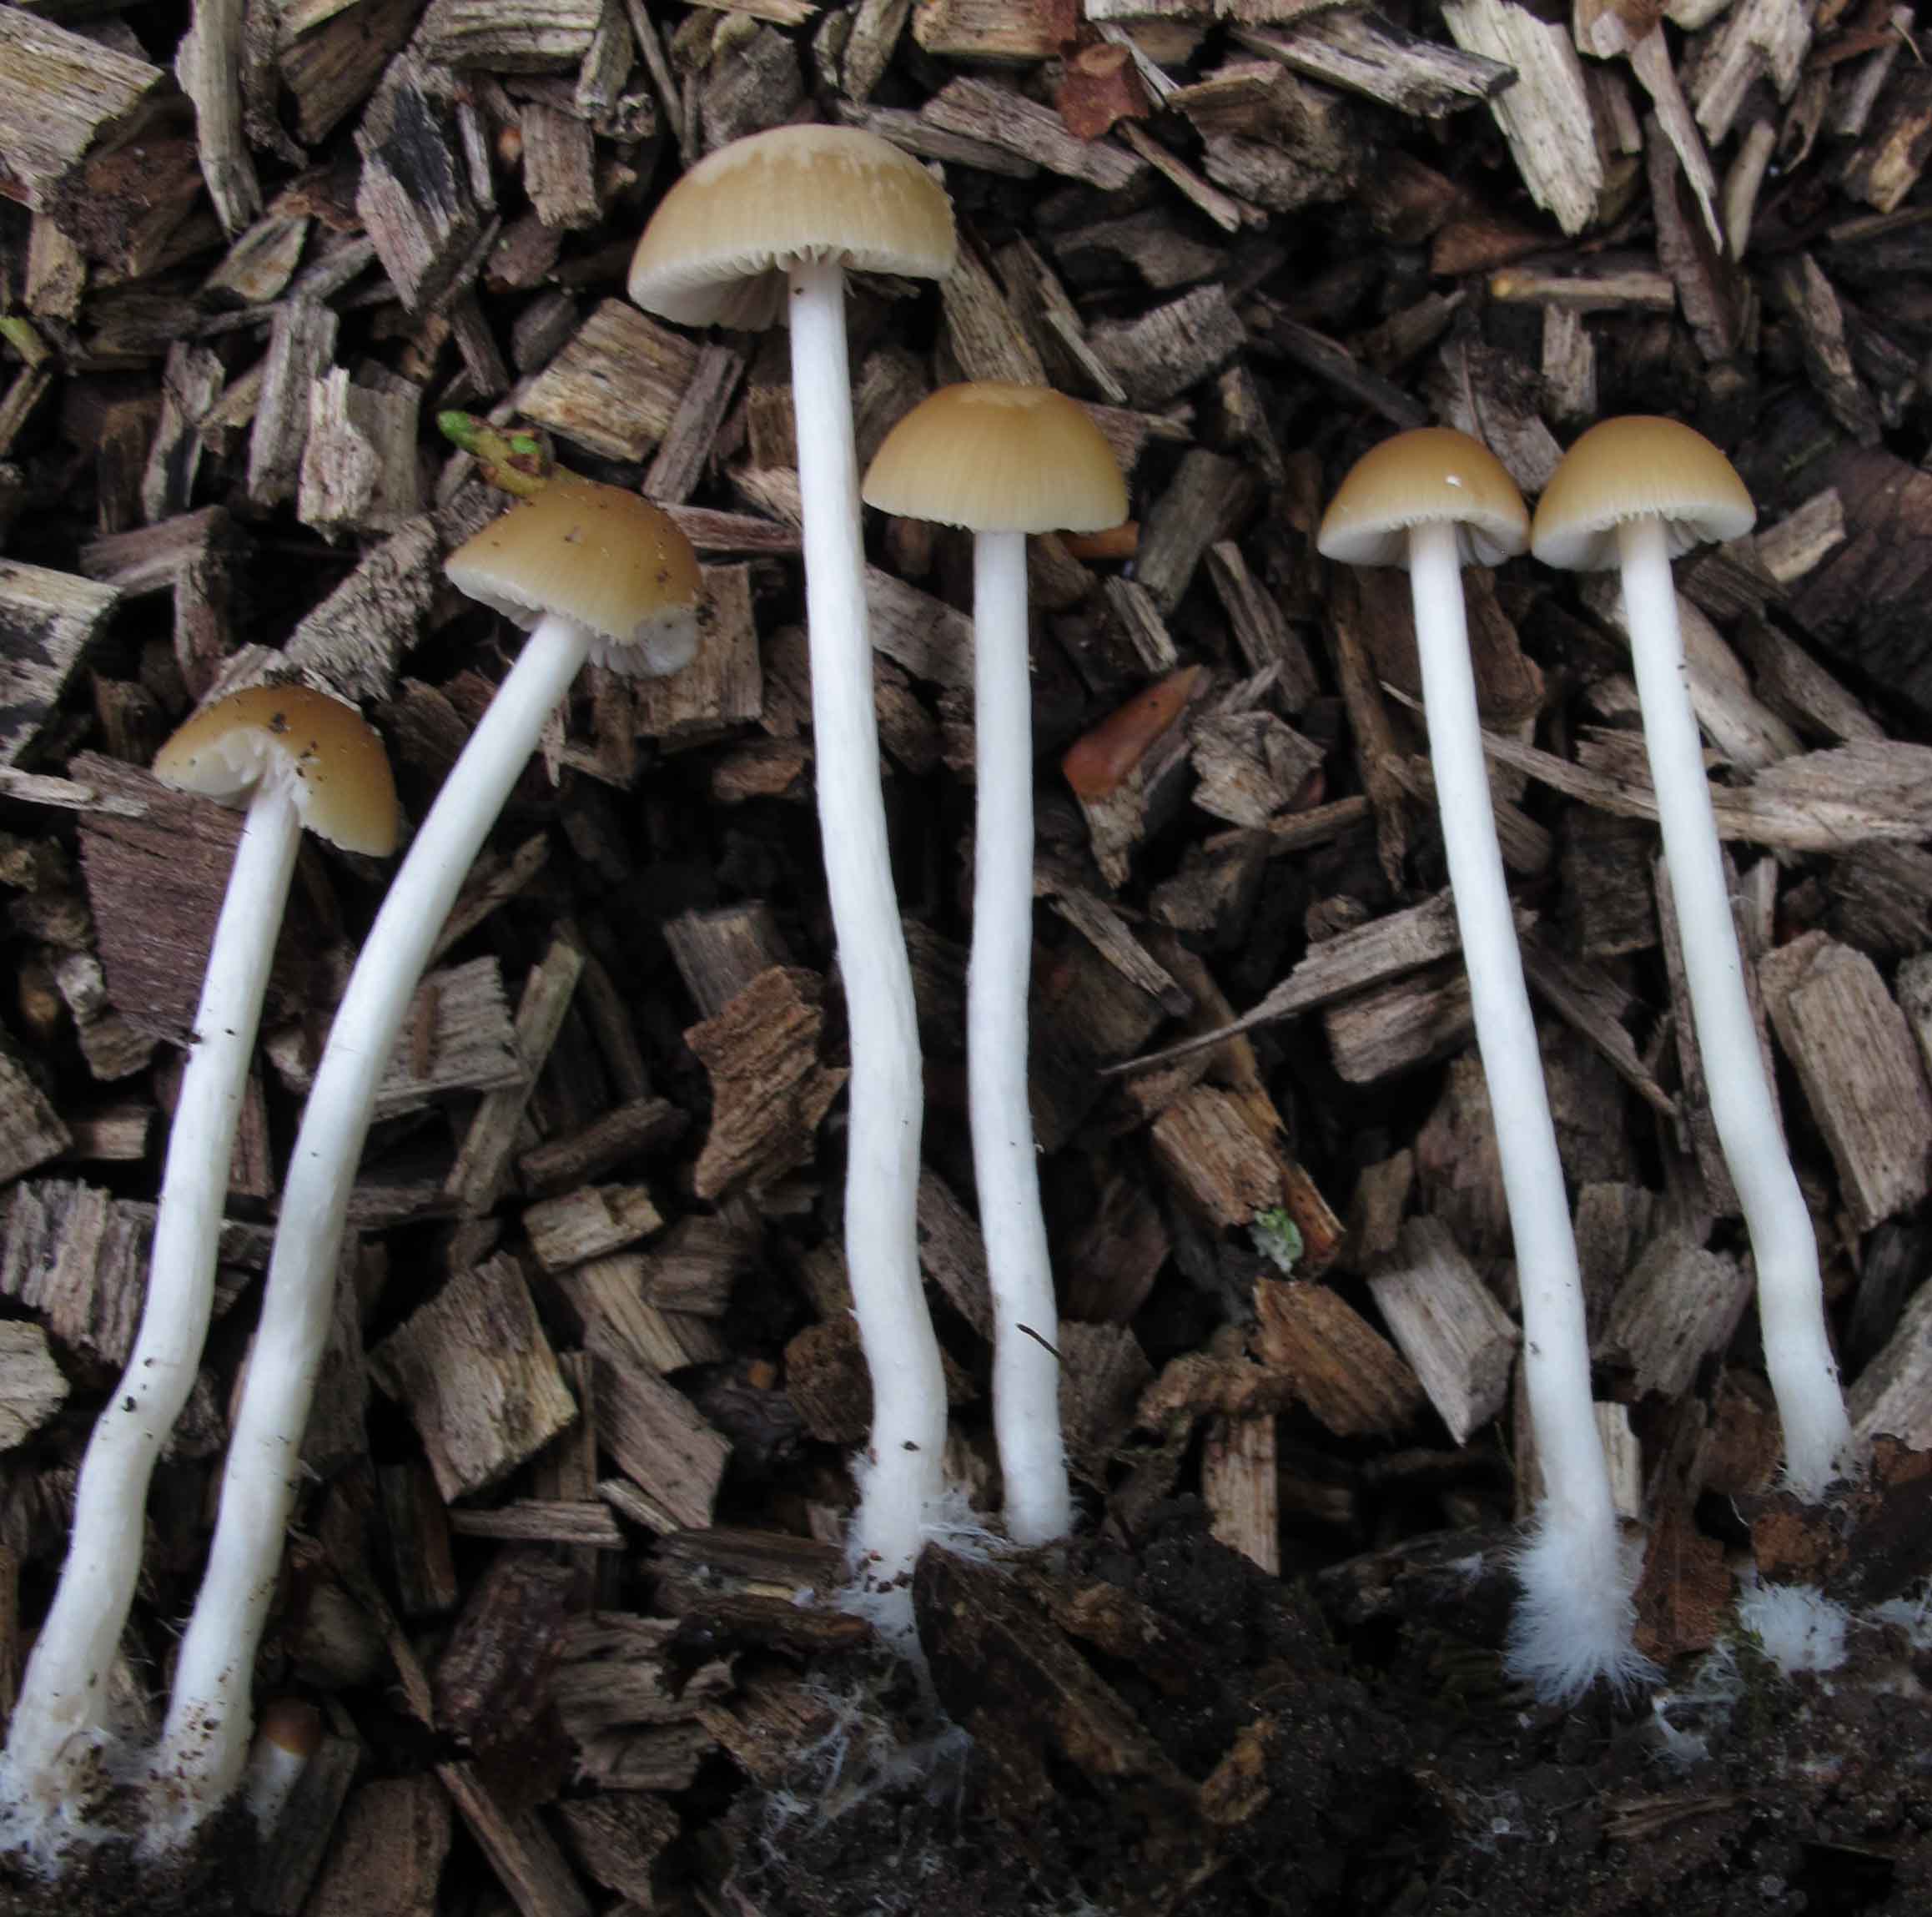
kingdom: Fungi
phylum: Basidiomycota
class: Agaricomycetes
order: Agaricales
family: Psathyrellaceae
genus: Psathyrella
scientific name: Psathyrella pseudogracilis
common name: slank mørkhat
